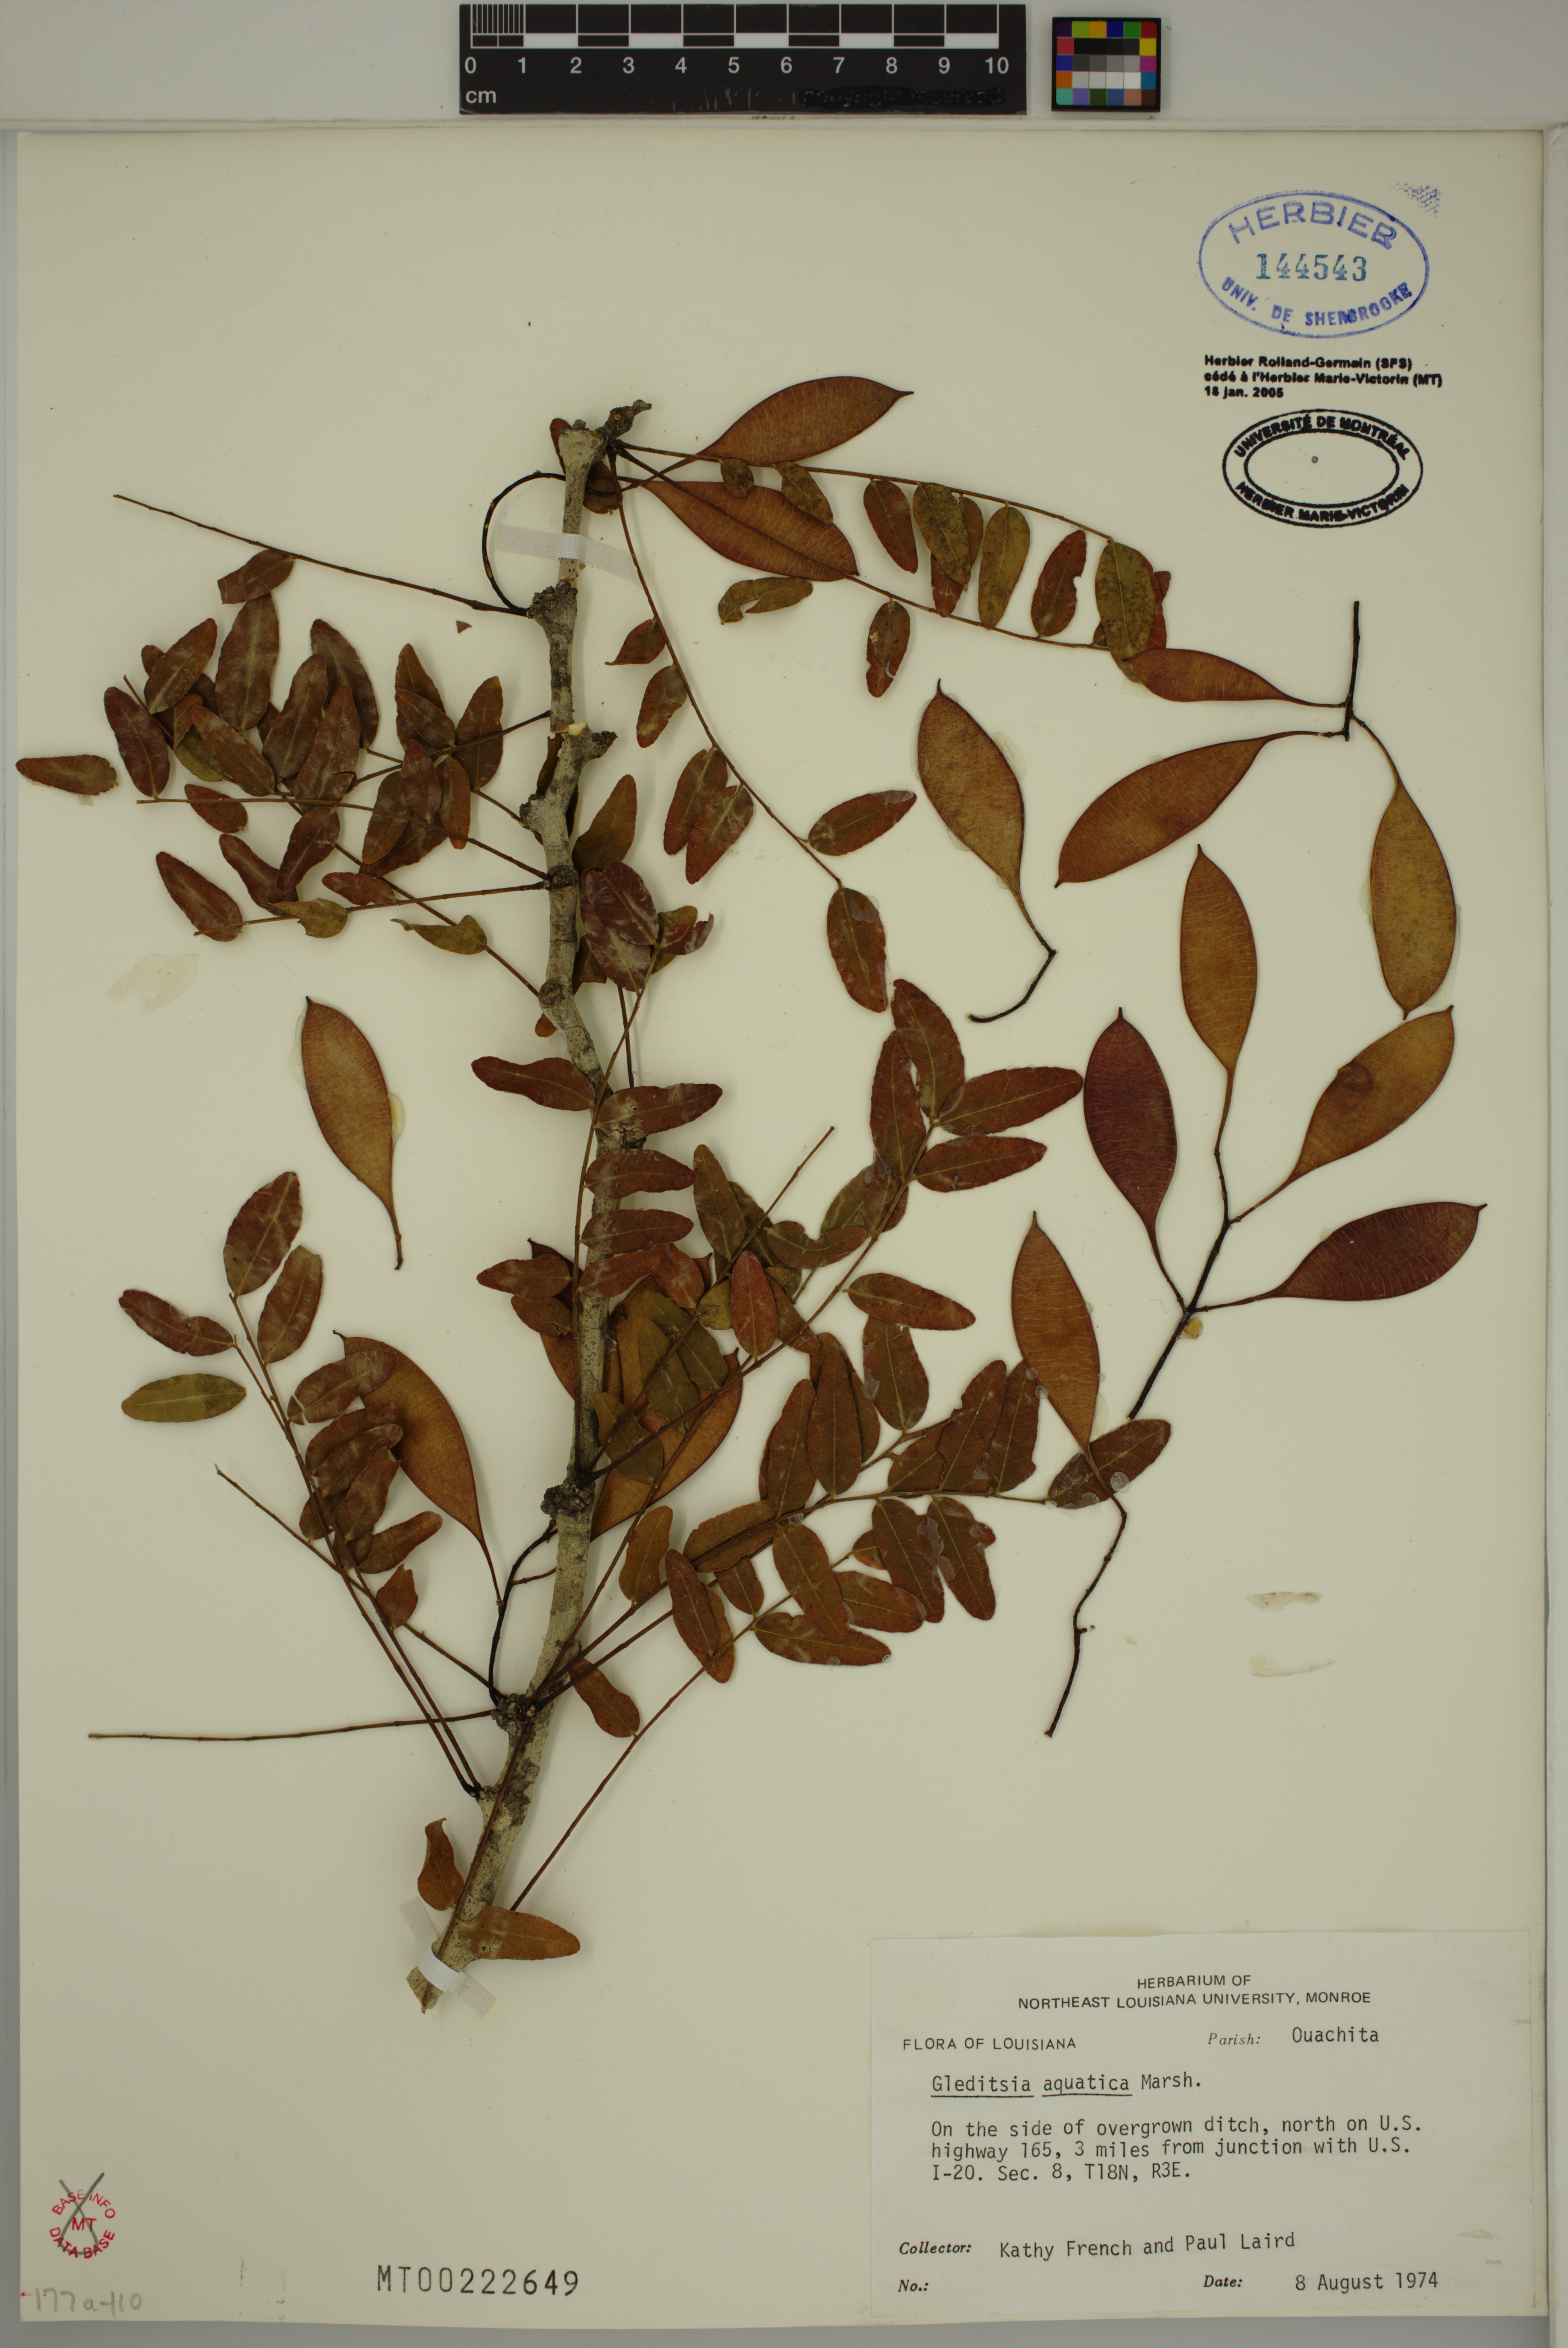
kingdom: Plantae
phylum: Tracheophyta
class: Magnoliopsida
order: Fabales
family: Fabaceae
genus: Gleditsia
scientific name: Gleditsia aquatica
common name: Swamp-locust
